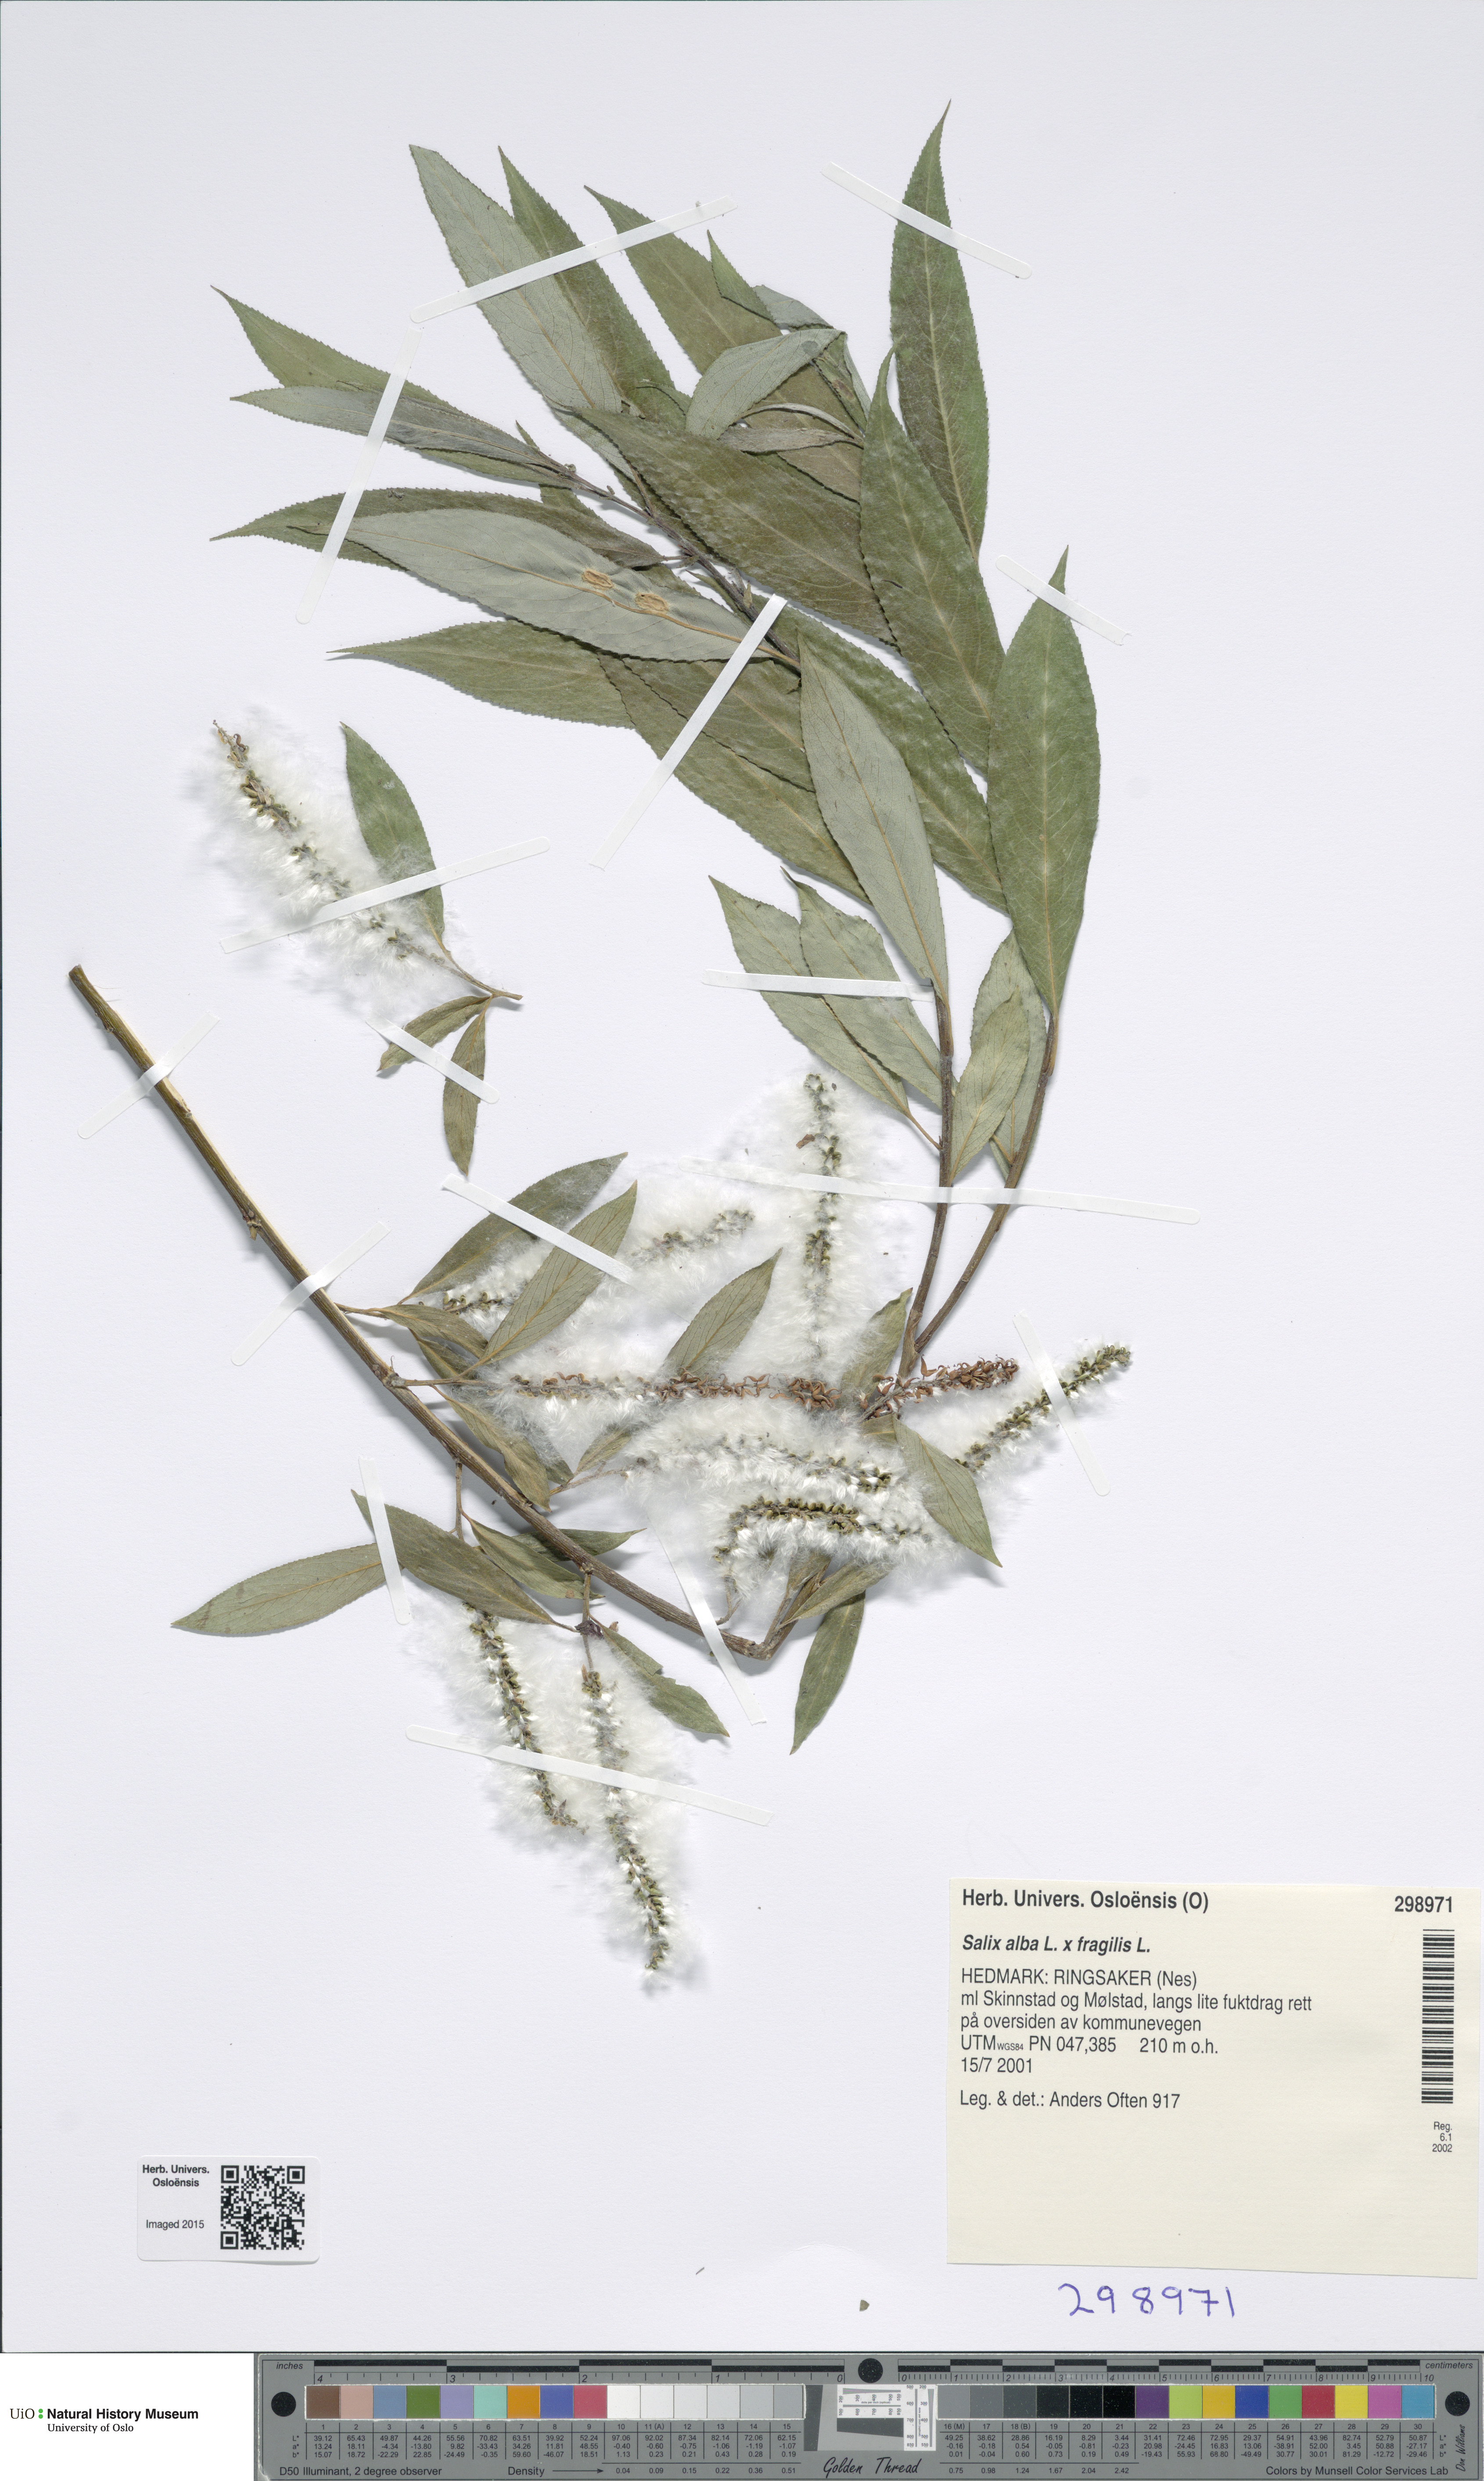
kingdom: Plantae
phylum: Tracheophyta
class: Magnoliopsida
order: Malpighiales
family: Salicaceae
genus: Salix
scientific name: Salix
